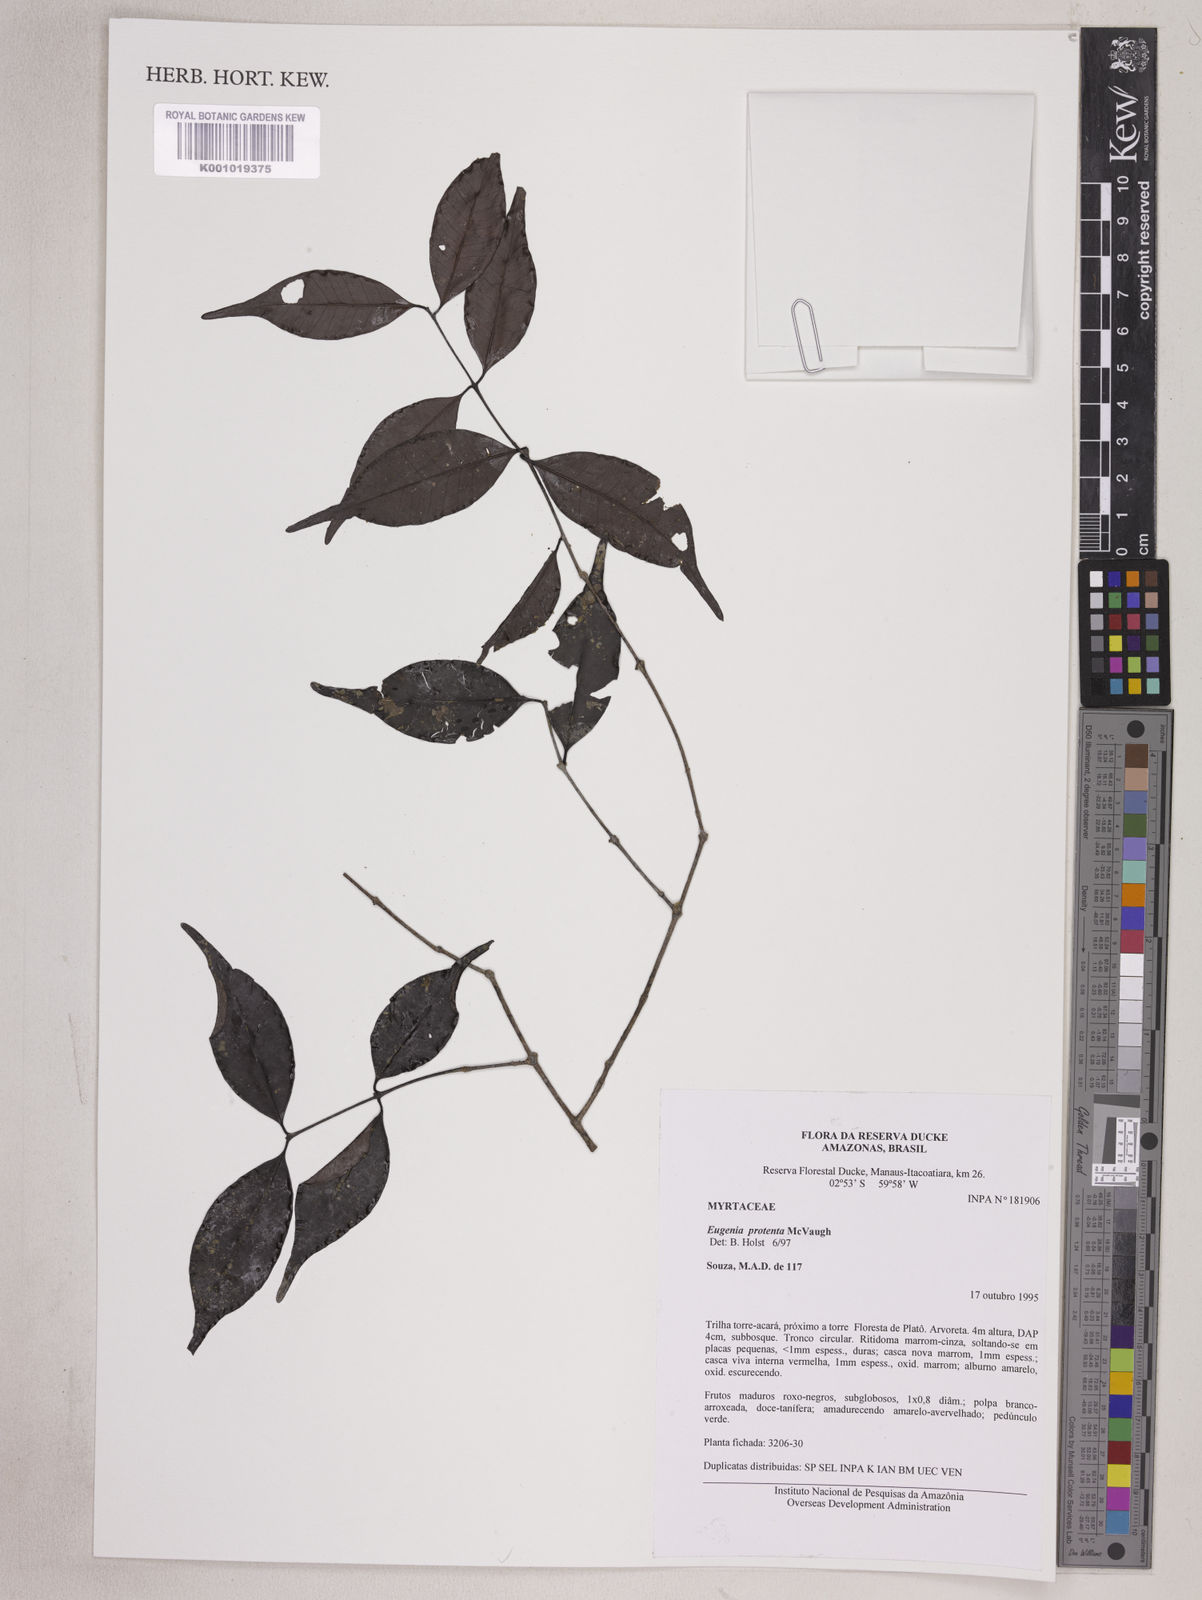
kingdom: Plantae
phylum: Tracheophyta
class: Magnoliopsida
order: Myrtales
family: Myrtaceae
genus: Eugenia
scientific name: Eugenia protenta
